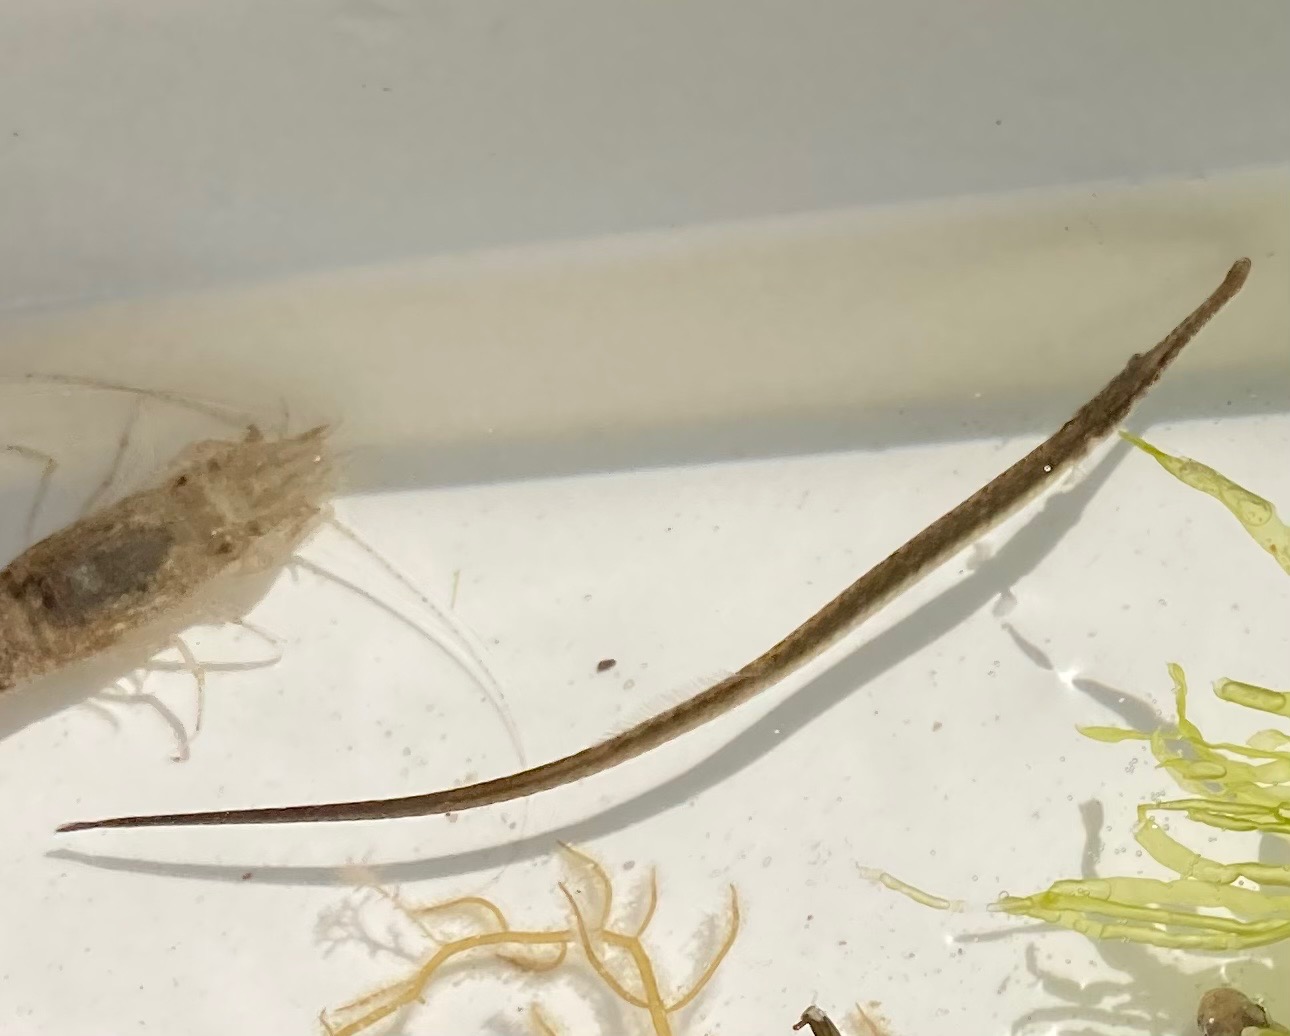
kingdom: Animalia
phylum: Chordata
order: Syngnathiformes
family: Syngnathidae
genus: Syngnathus
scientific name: Syngnathus typhle
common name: Almindelig tangnål
